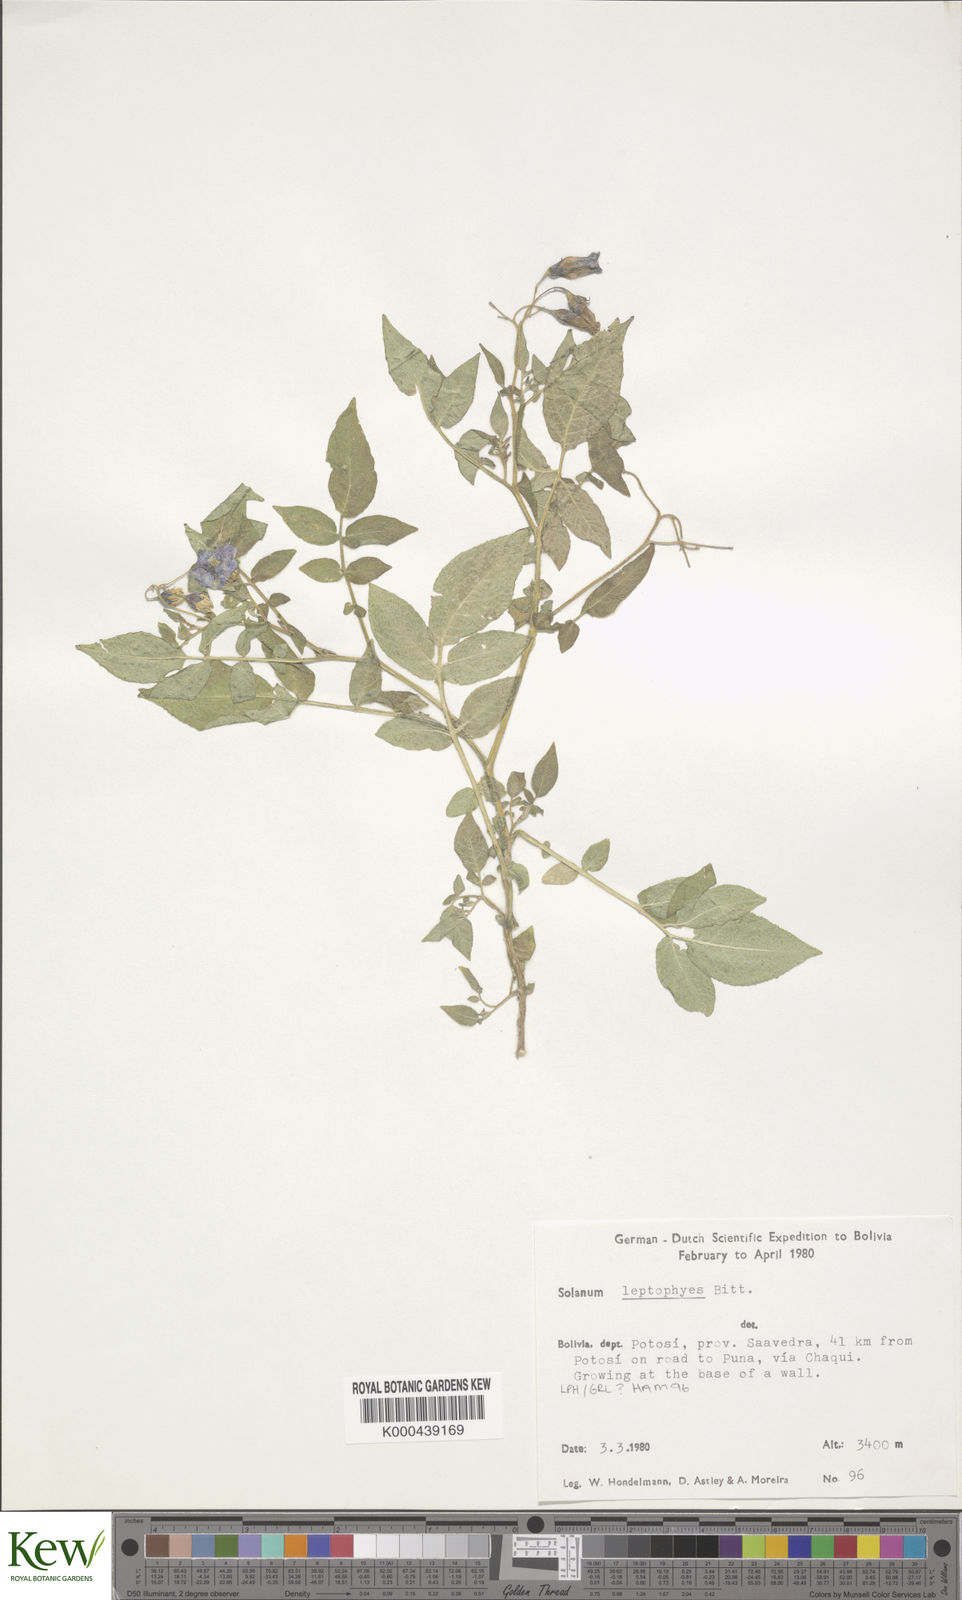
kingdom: Plantae
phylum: Tracheophyta
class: Magnoliopsida
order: Solanales
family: Solanaceae
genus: Solanum
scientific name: Solanum brevicaule
